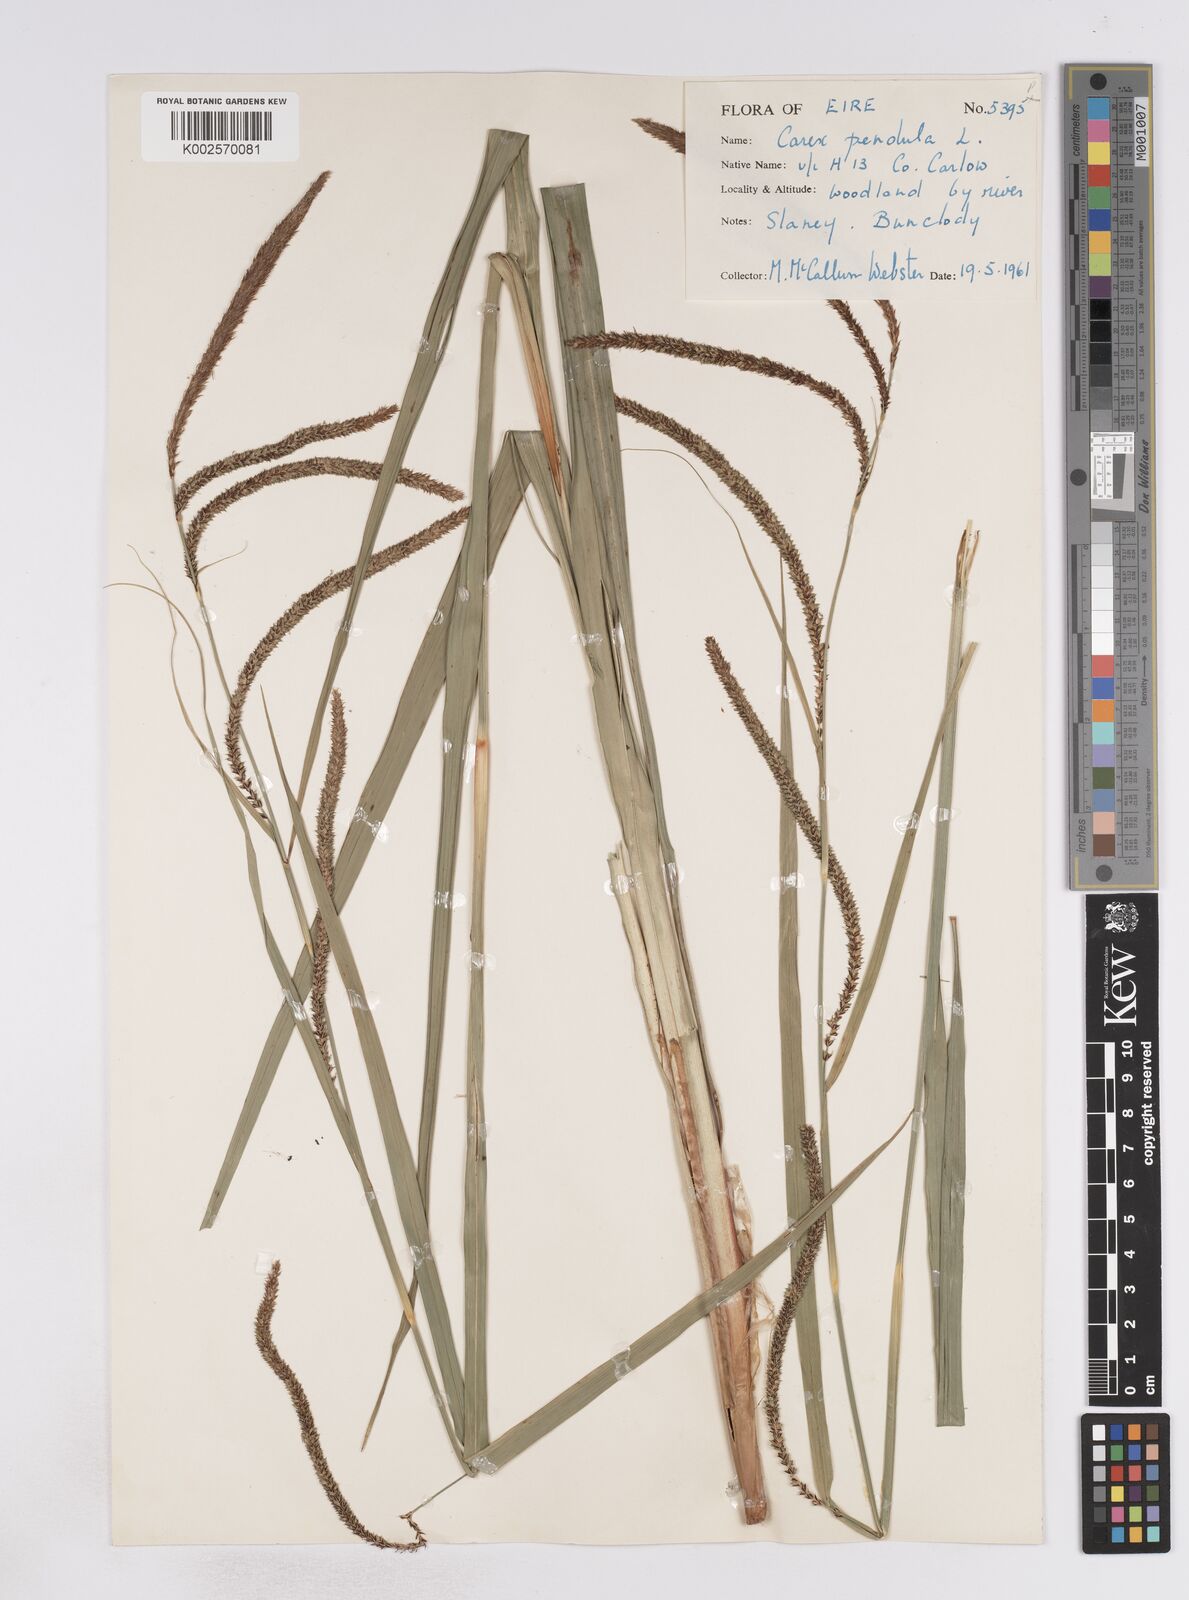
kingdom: Plantae
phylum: Tracheophyta
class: Liliopsida
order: Poales
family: Cyperaceae
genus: Carex
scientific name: Carex pendula
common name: Pendulous sedge
